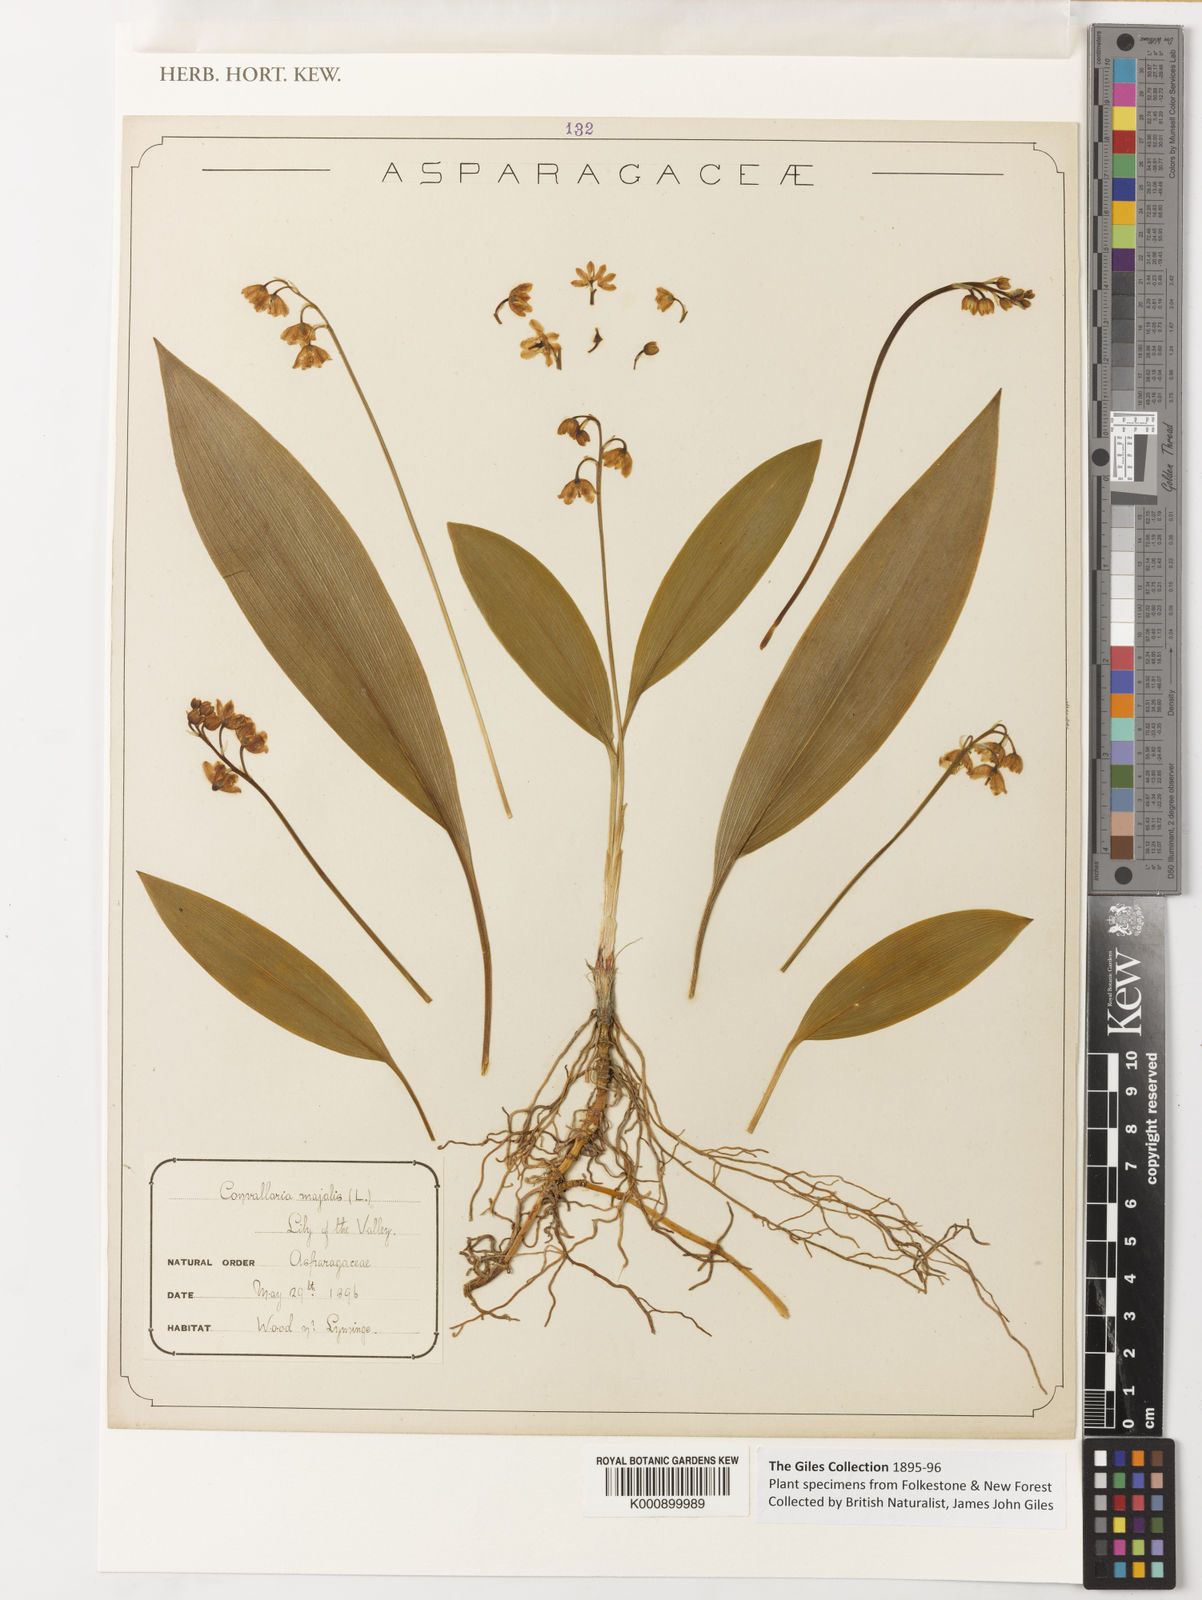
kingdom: Plantae
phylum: Tracheophyta
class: Liliopsida
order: Asparagales
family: Asparagaceae
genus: Convallaria
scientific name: Convallaria majalis
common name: Lily-of-the-valley
